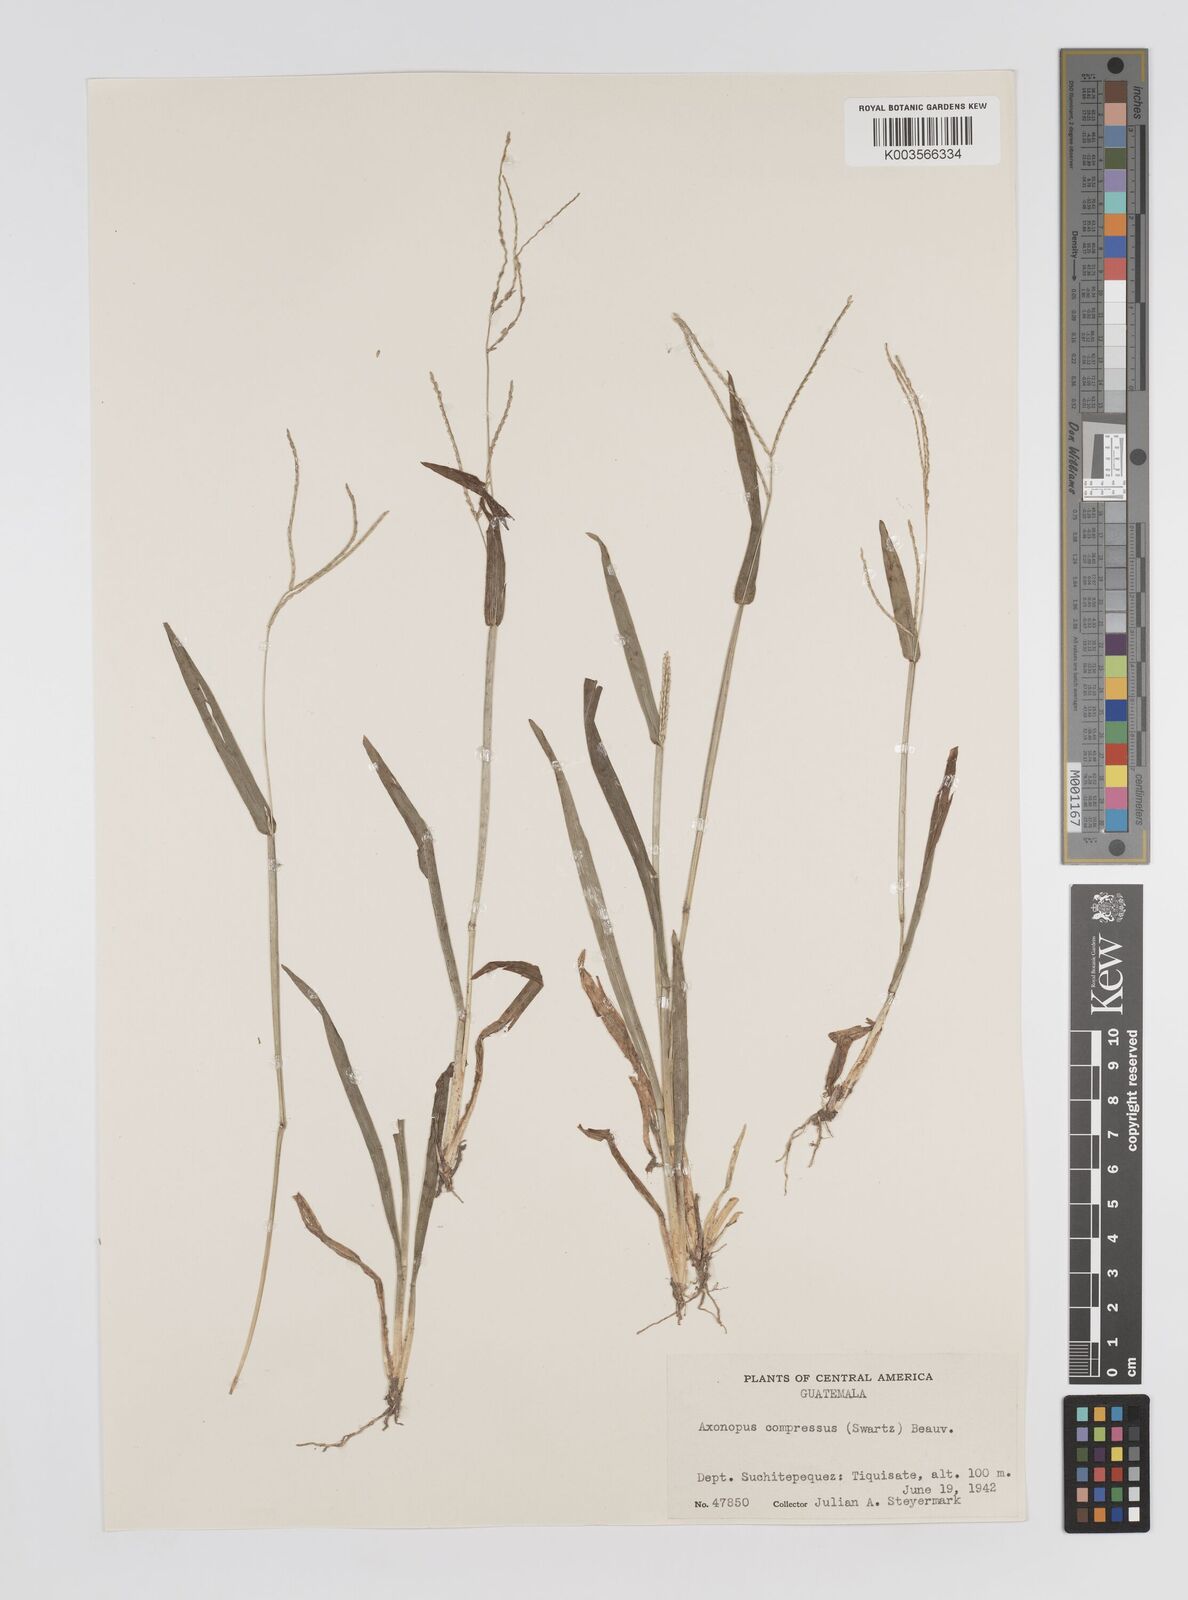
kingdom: Plantae
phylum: Tracheophyta
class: Liliopsida
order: Poales
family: Poaceae
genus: Axonopus
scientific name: Axonopus compressus
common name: American carpet grass
